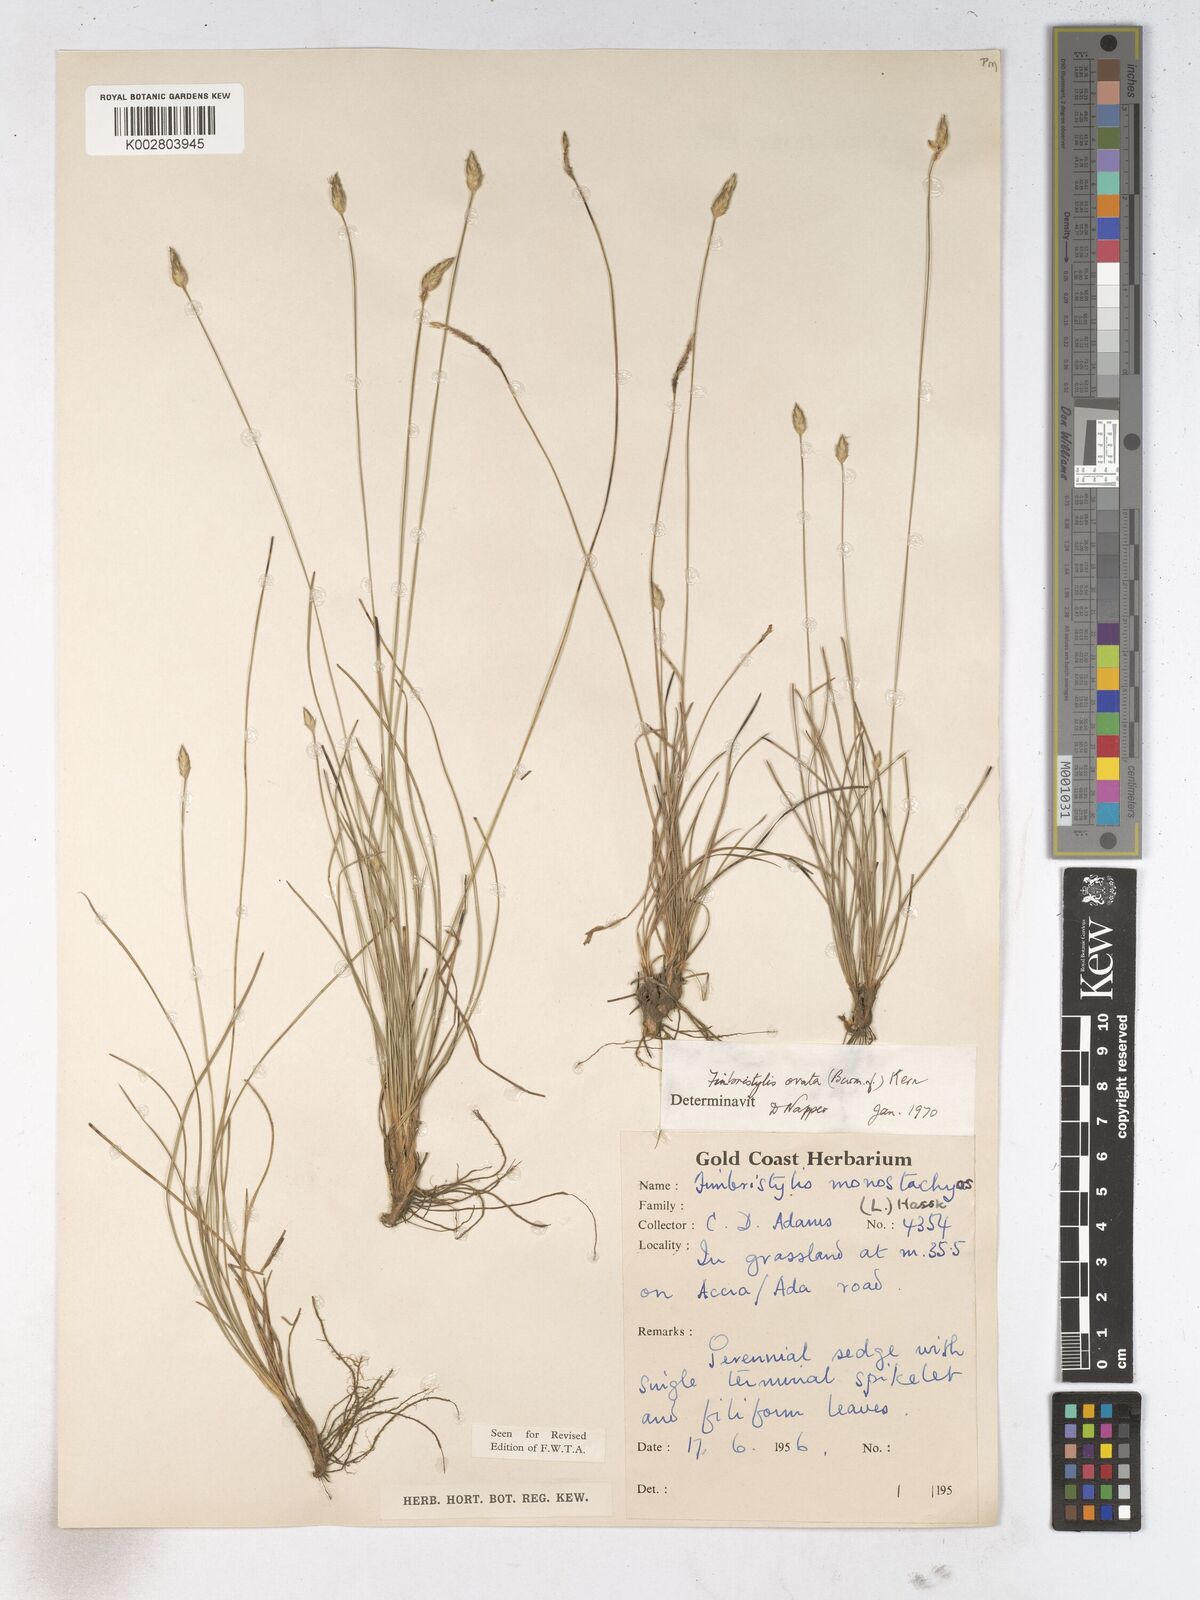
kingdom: Plantae
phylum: Tracheophyta
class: Liliopsida
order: Poales
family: Cyperaceae
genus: Abildgaardia
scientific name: Abildgaardia ovata
